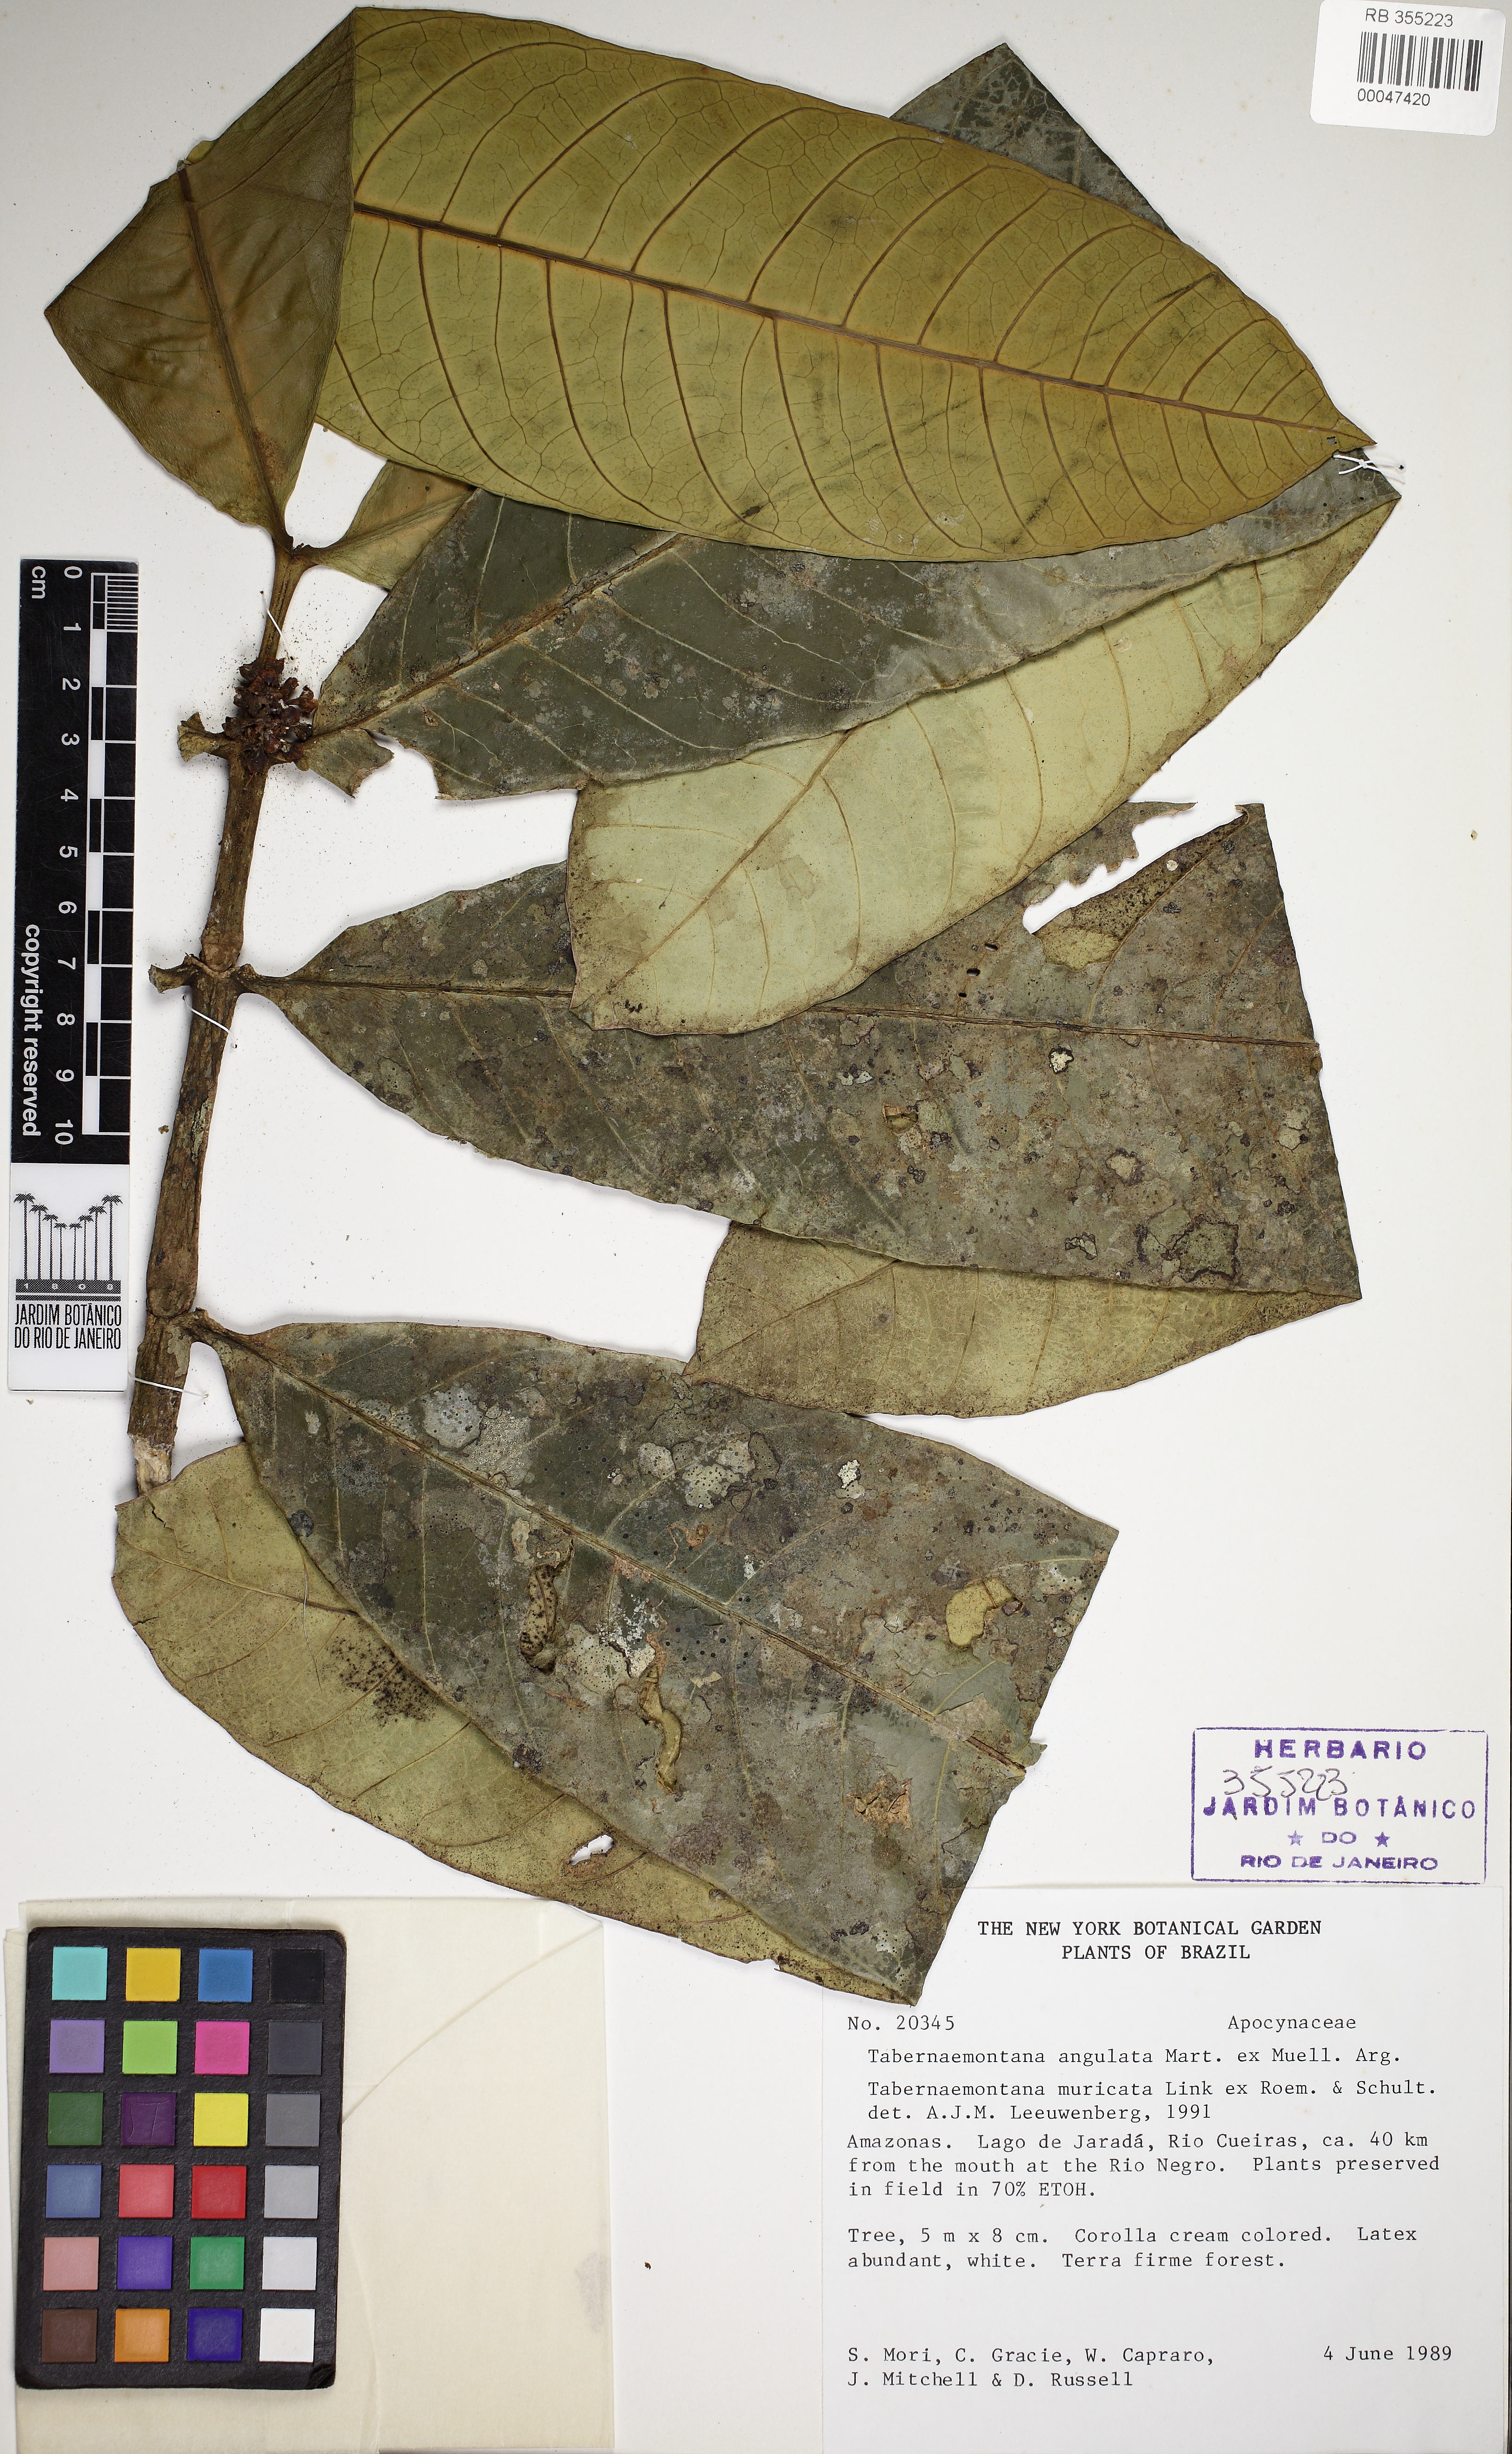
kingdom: Plantae
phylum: Tracheophyta
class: Magnoliopsida
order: Gentianales
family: Apocynaceae
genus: Tabernaemontana
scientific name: Tabernaemontana muricata
